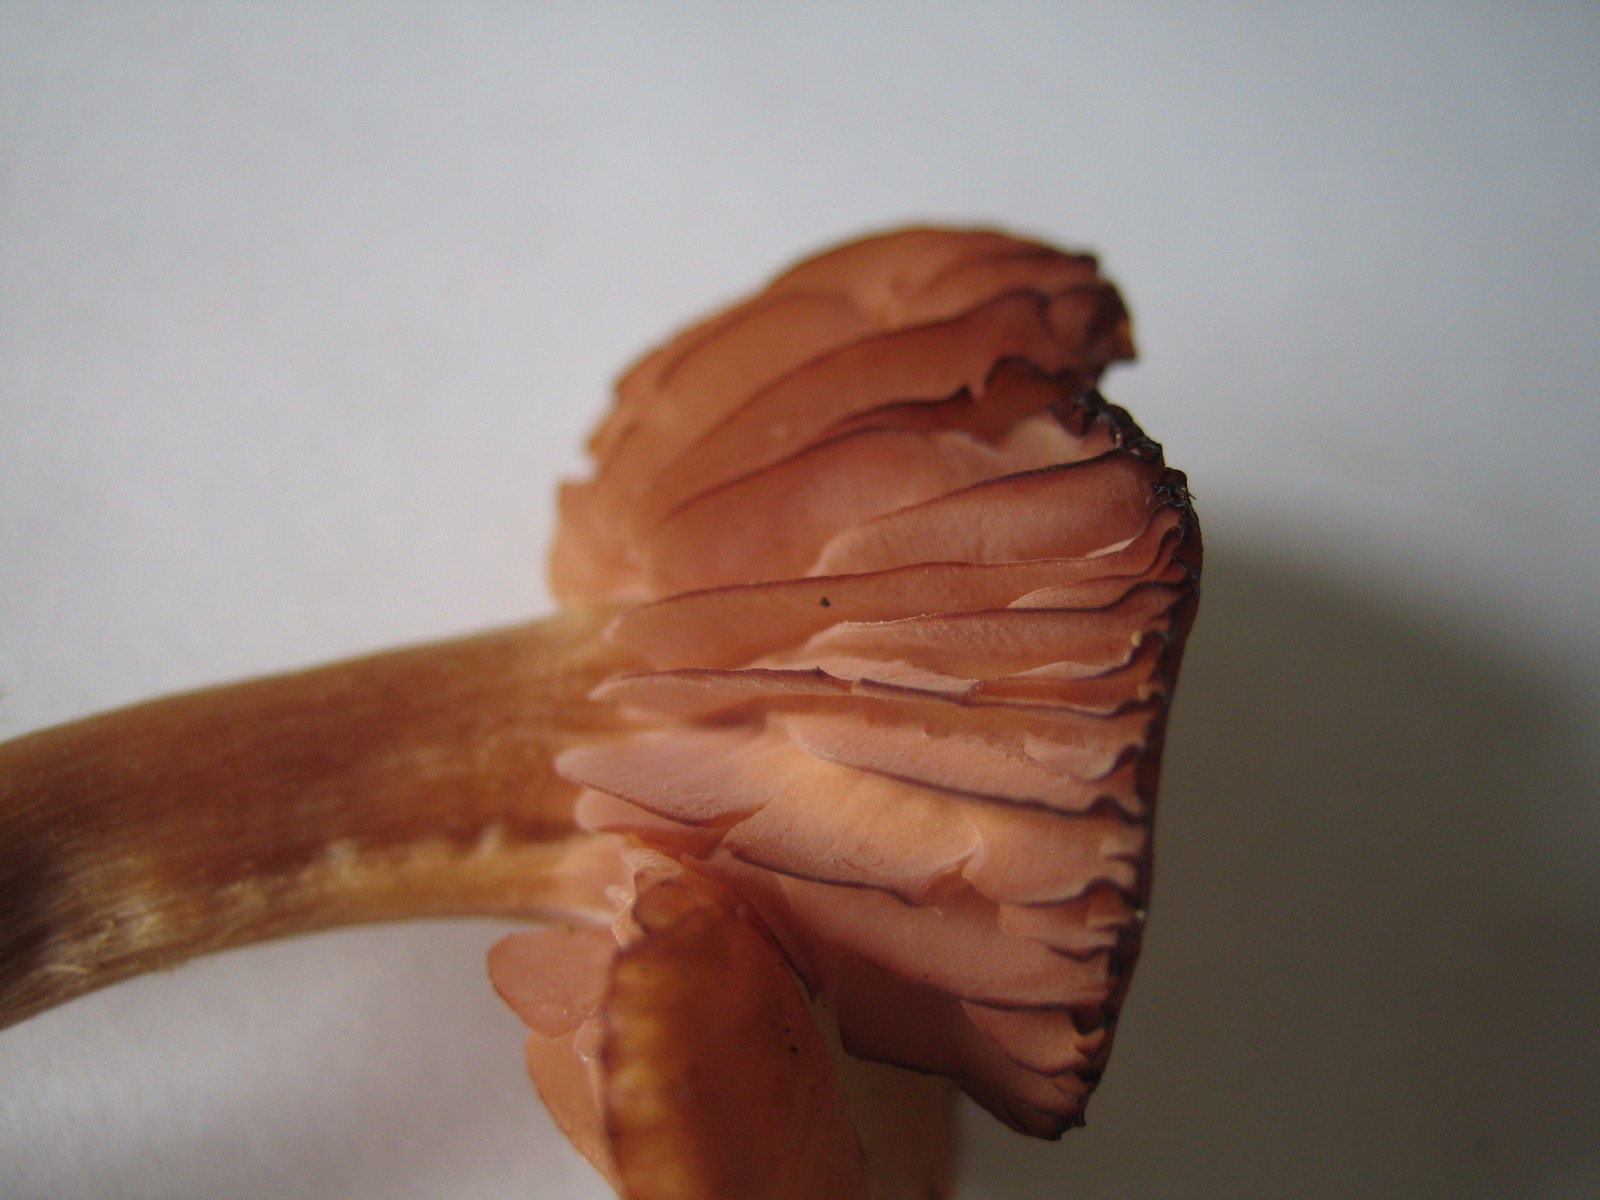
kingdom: Fungi
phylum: Basidiomycota
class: Agaricomycetes
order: Agaricales
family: Hydnangiaceae
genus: Laccaria
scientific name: Laccaria laccata
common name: rød ametysthat
